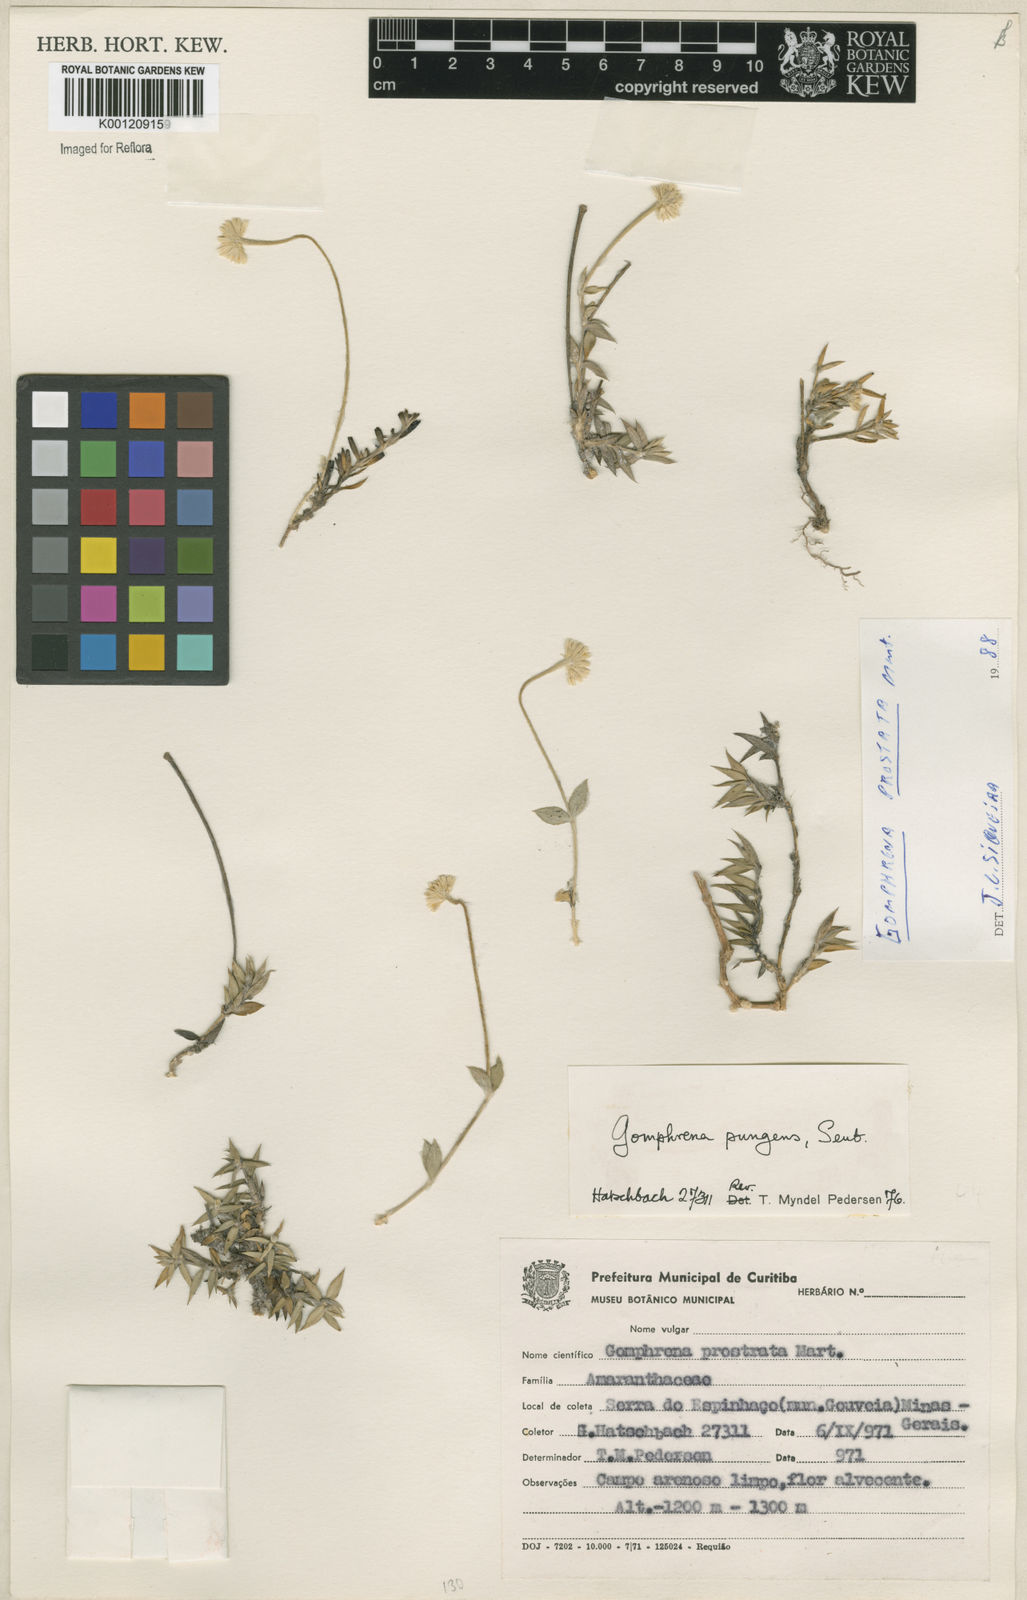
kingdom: Plantae
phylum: Tracheophyta
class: Magnoliopsida
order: Caryophyllales
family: Amaranthaceae
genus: Gomphrena
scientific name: Gomphrena pungens
